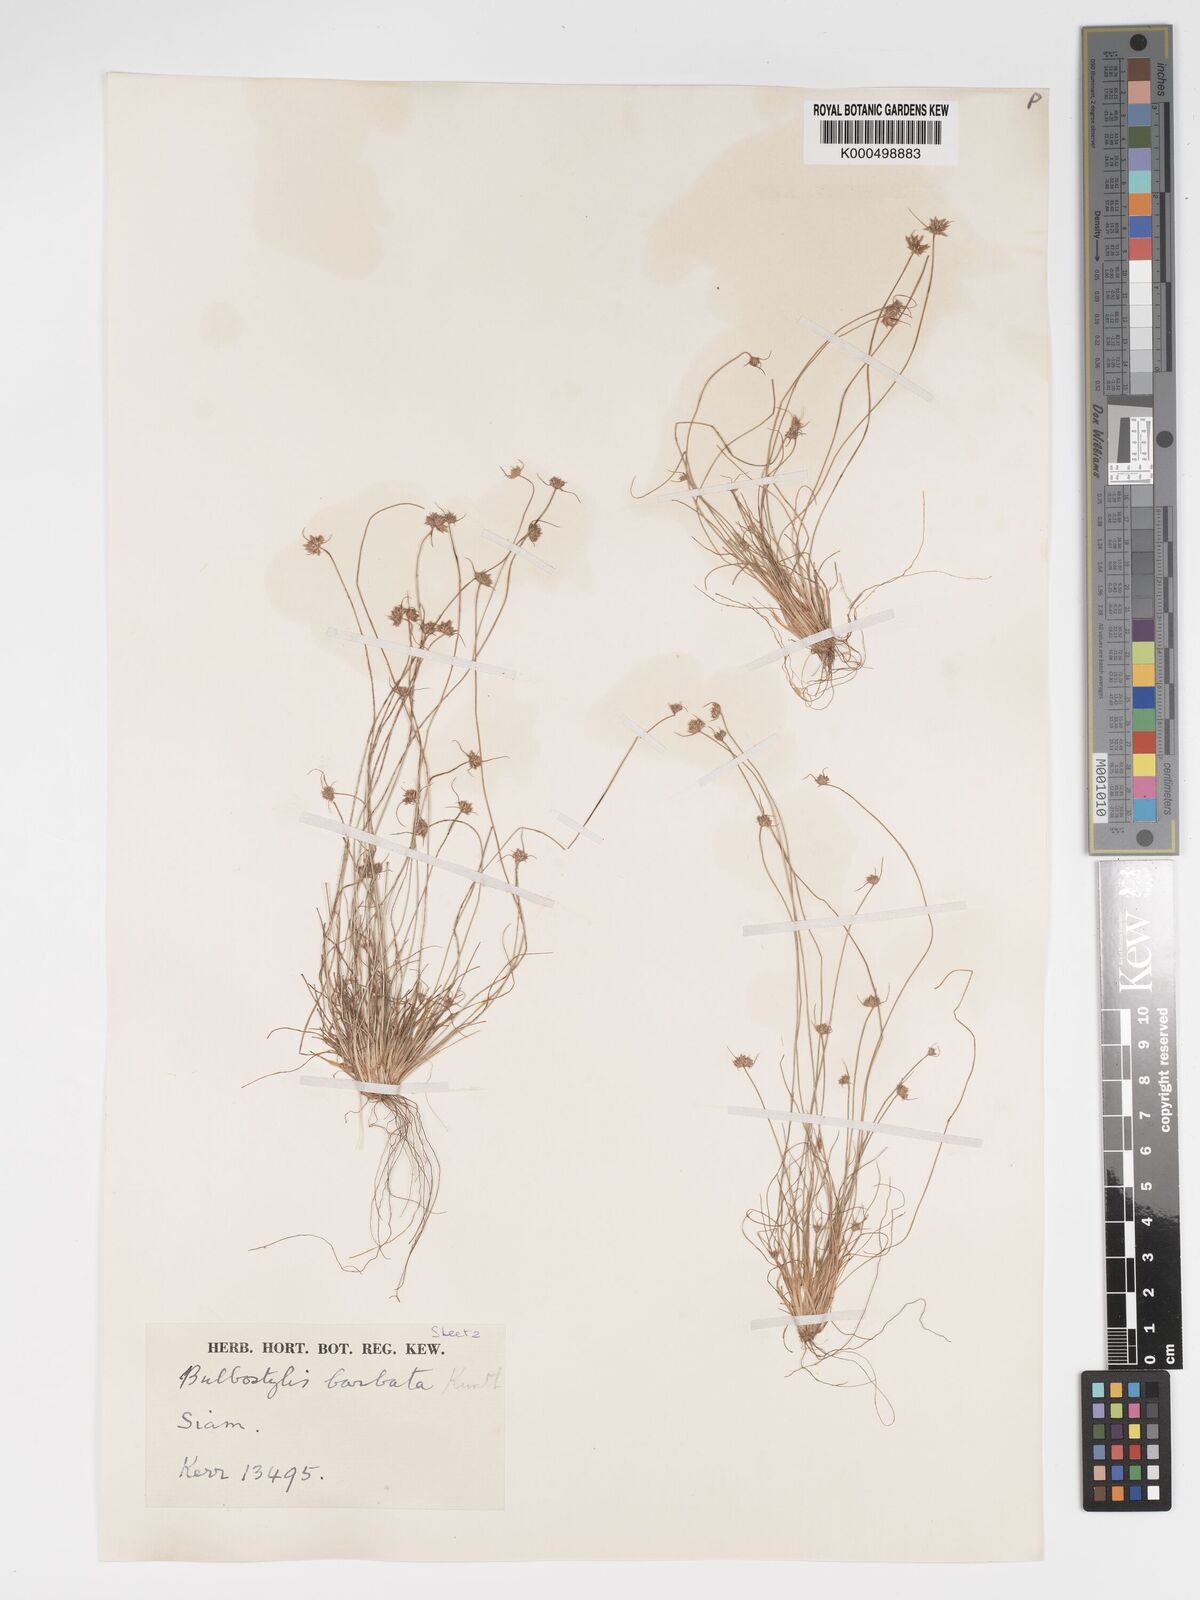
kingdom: Plantae
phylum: Tracheophyta
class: Liliopsida
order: Poales
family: Cyperaceae
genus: Bulbostylis
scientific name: Bulbostylis barbata
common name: Watergrass
